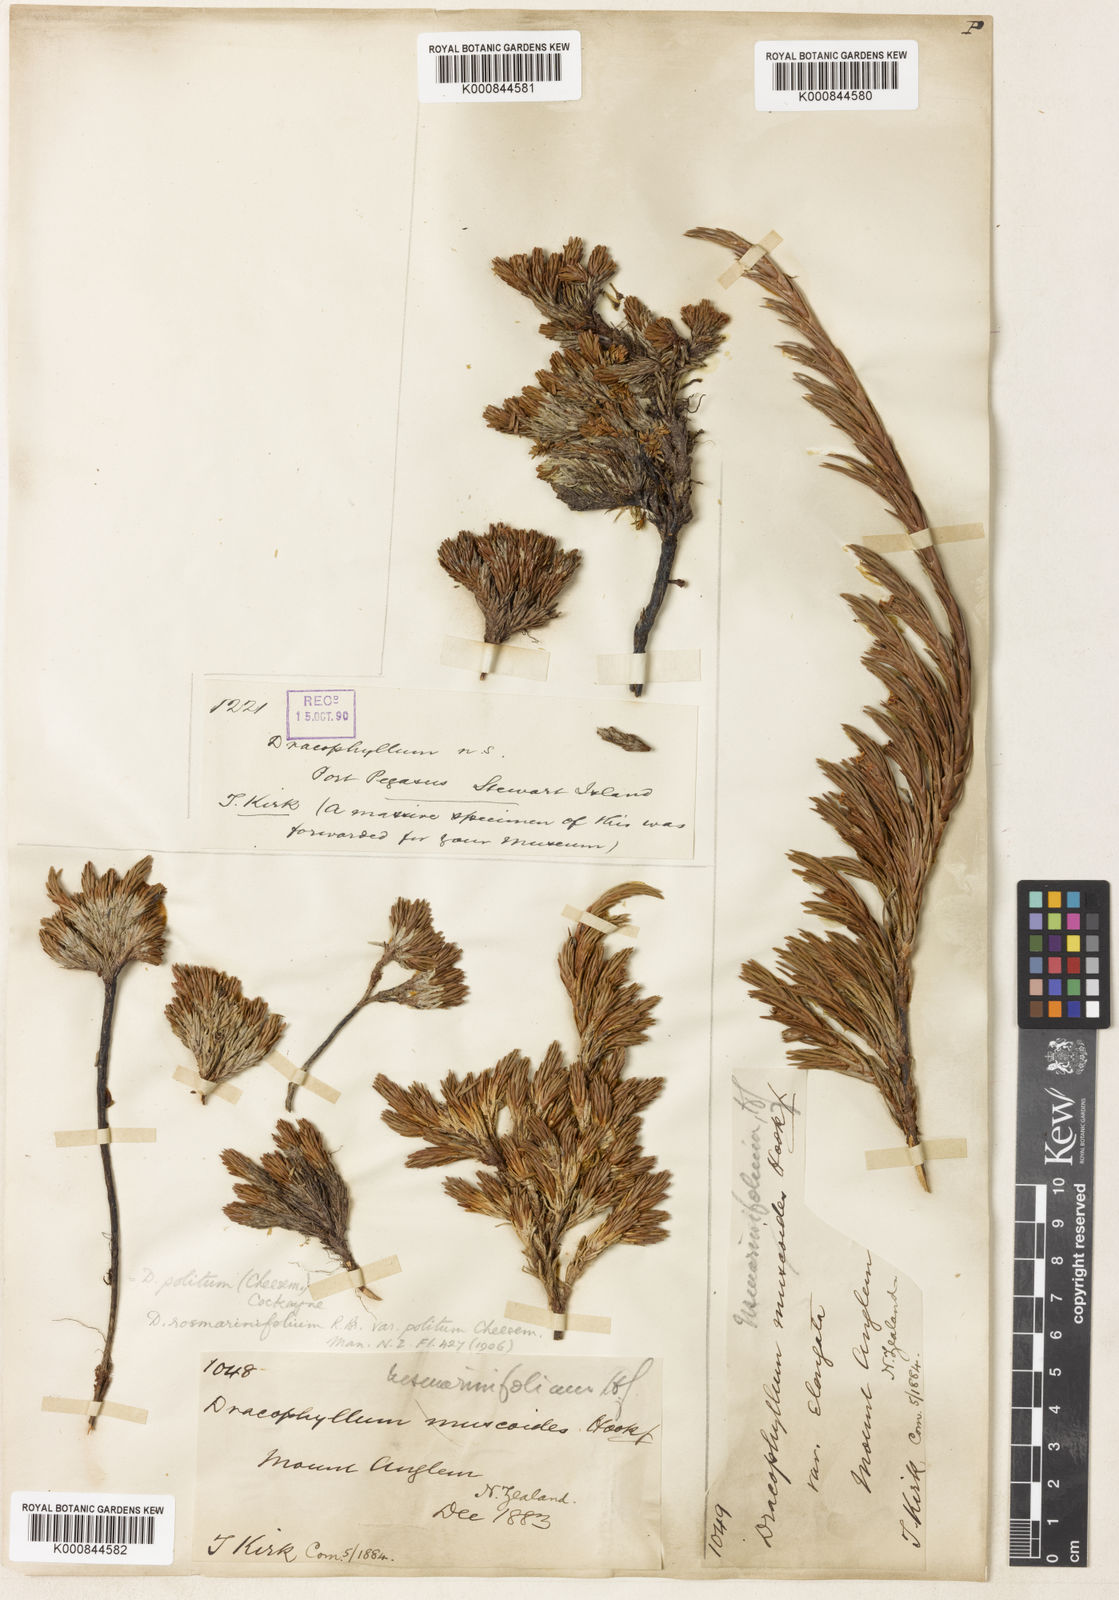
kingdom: Plantae
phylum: Tracheophyta
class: Magnoliopsida
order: Ericales
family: Ericaceae
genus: Dracophyllum
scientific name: Dracophyllum politum
